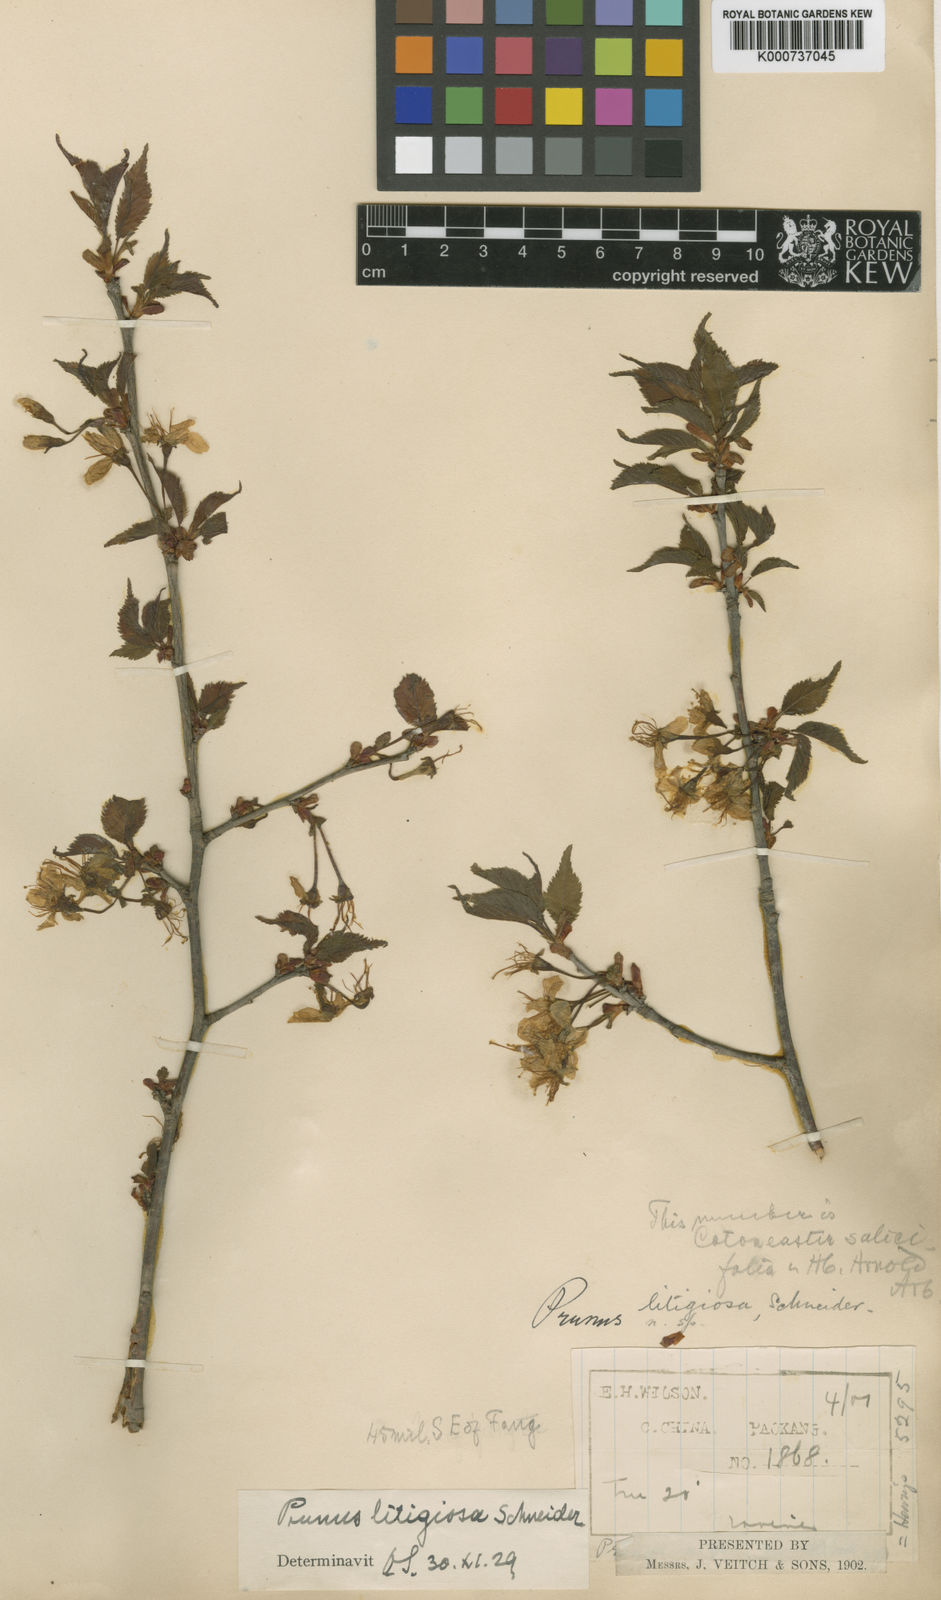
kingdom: Plantae
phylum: Tracheophyta
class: Magnoliopsida
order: Rosales
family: Rosaceae
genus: Prunus
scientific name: Prunus clarofolia
